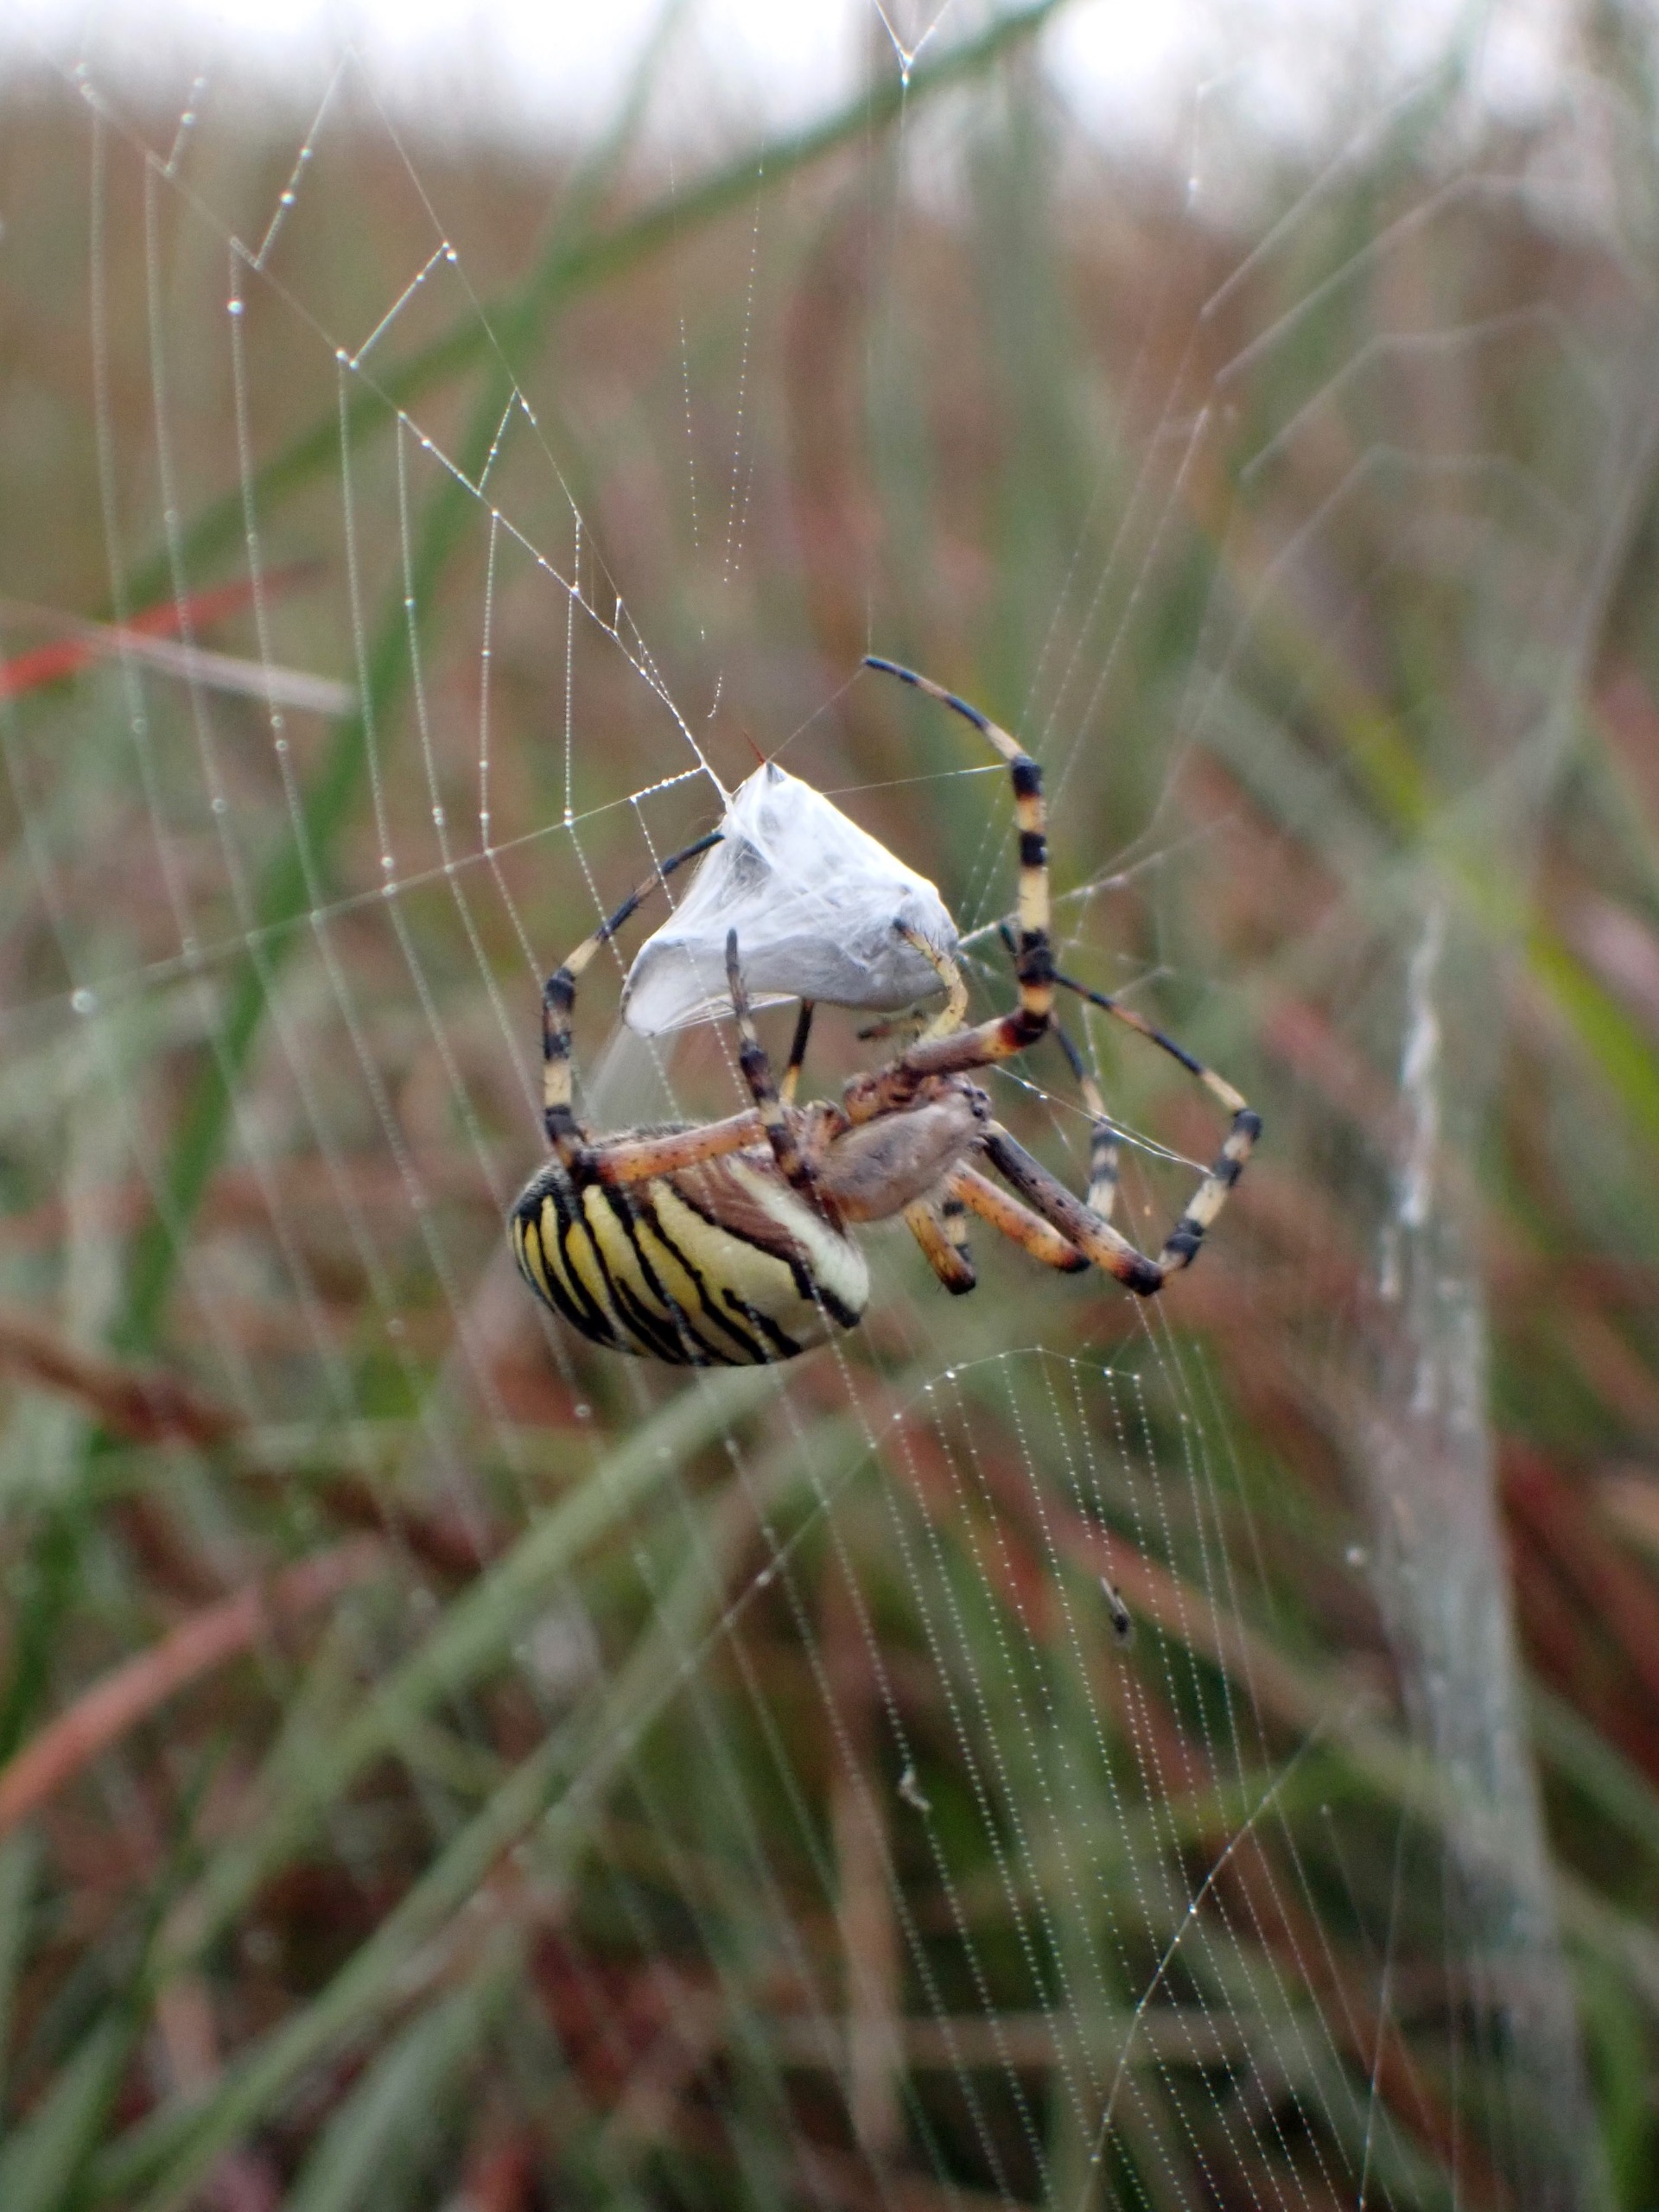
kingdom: Animalia
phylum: Arthropoda
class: Arachnida
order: Araneae
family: Araneidae
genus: Argiope
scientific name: Argiope bruennichi
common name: Hvepseedderkop
